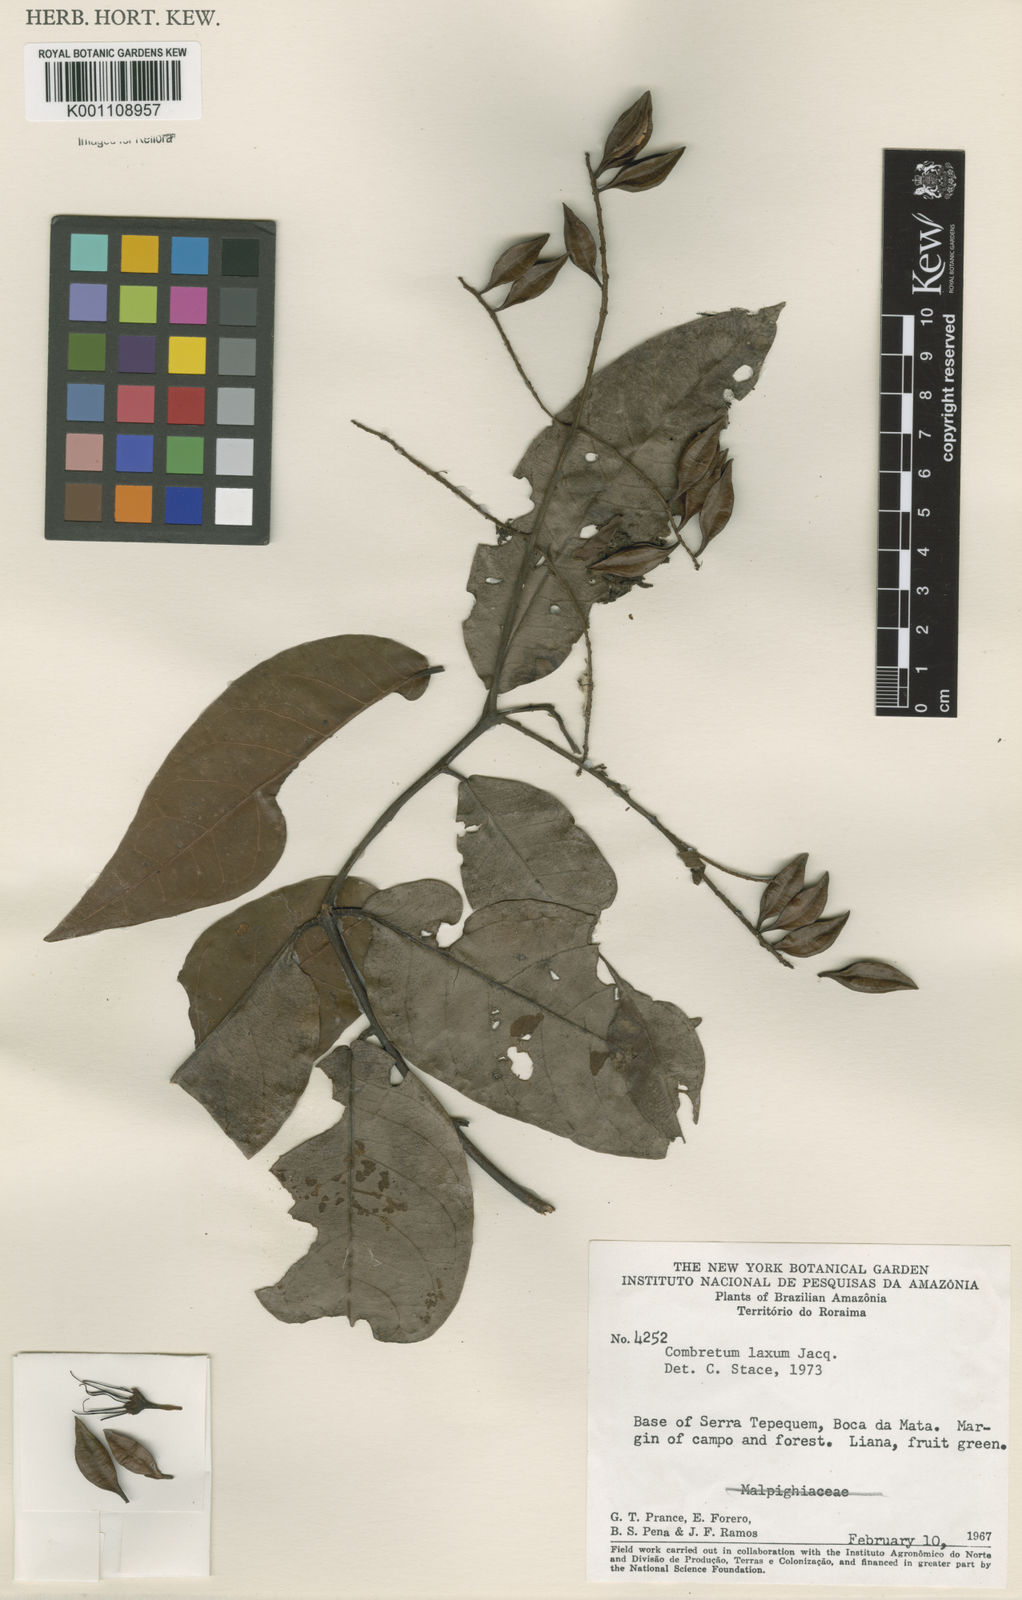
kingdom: Plantae
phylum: Tracheophyta
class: Magnoliopsida
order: Myrtales
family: Combretaceae
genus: Combretum
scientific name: Combretum laxum
